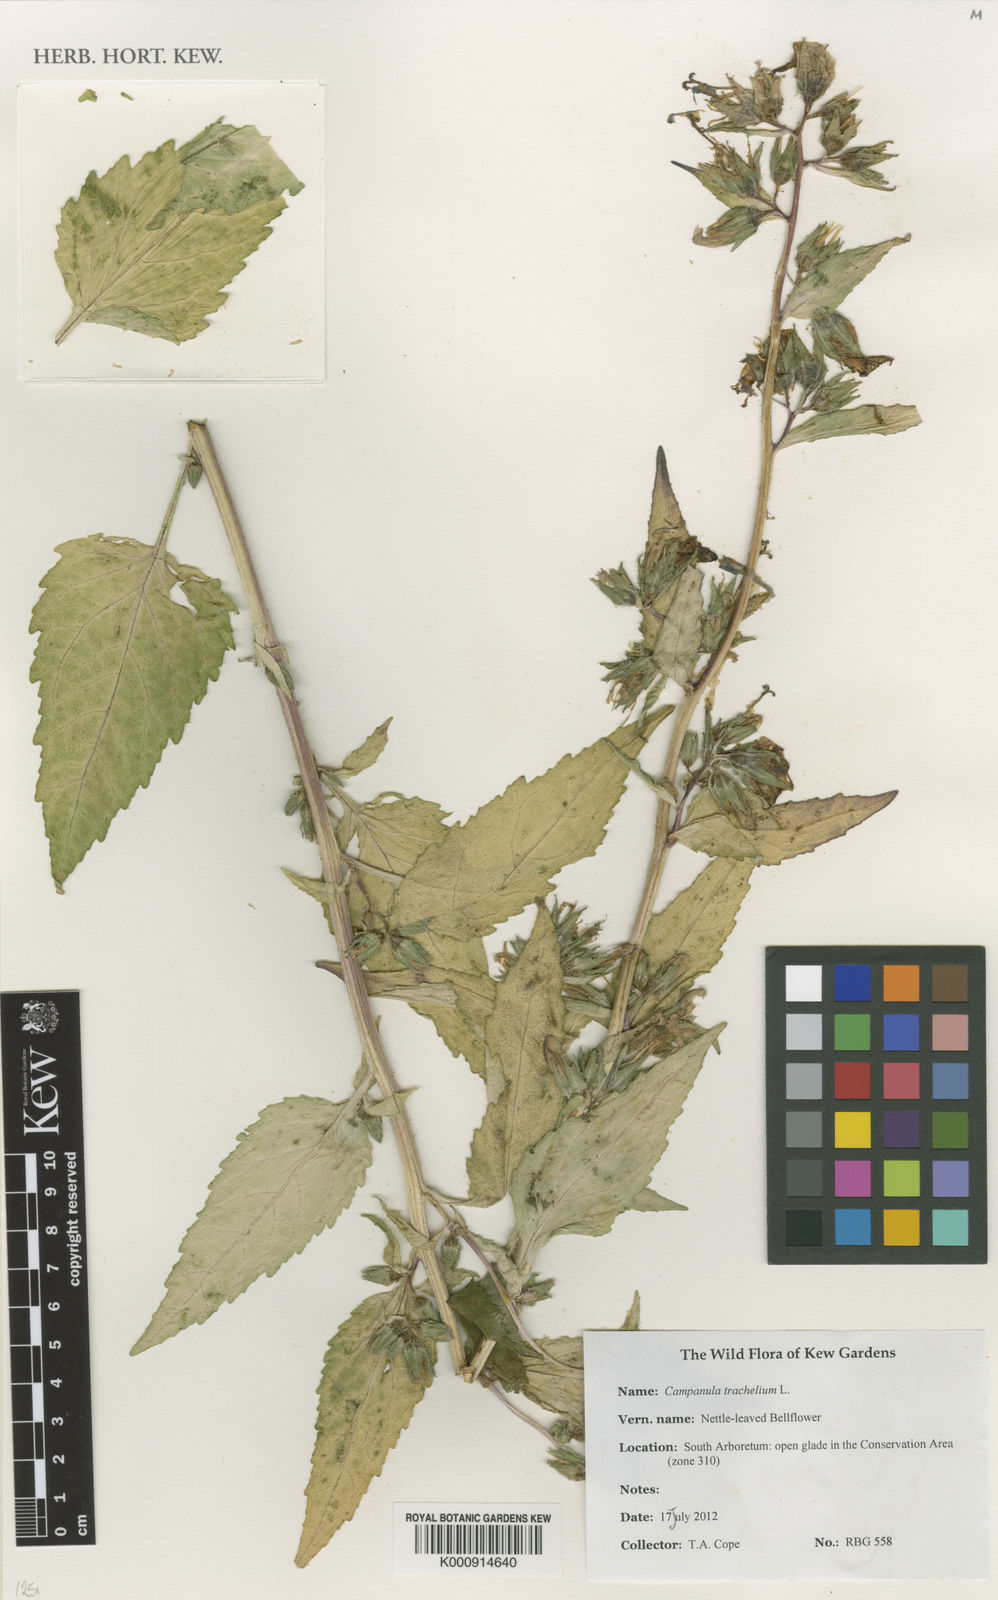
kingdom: Plantae
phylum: Tracheophyta
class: Magnoliopsida
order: Asterales
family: Campanulaceae
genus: Campanula
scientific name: Campanula trachelium
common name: Nettle-leaved bellflower
